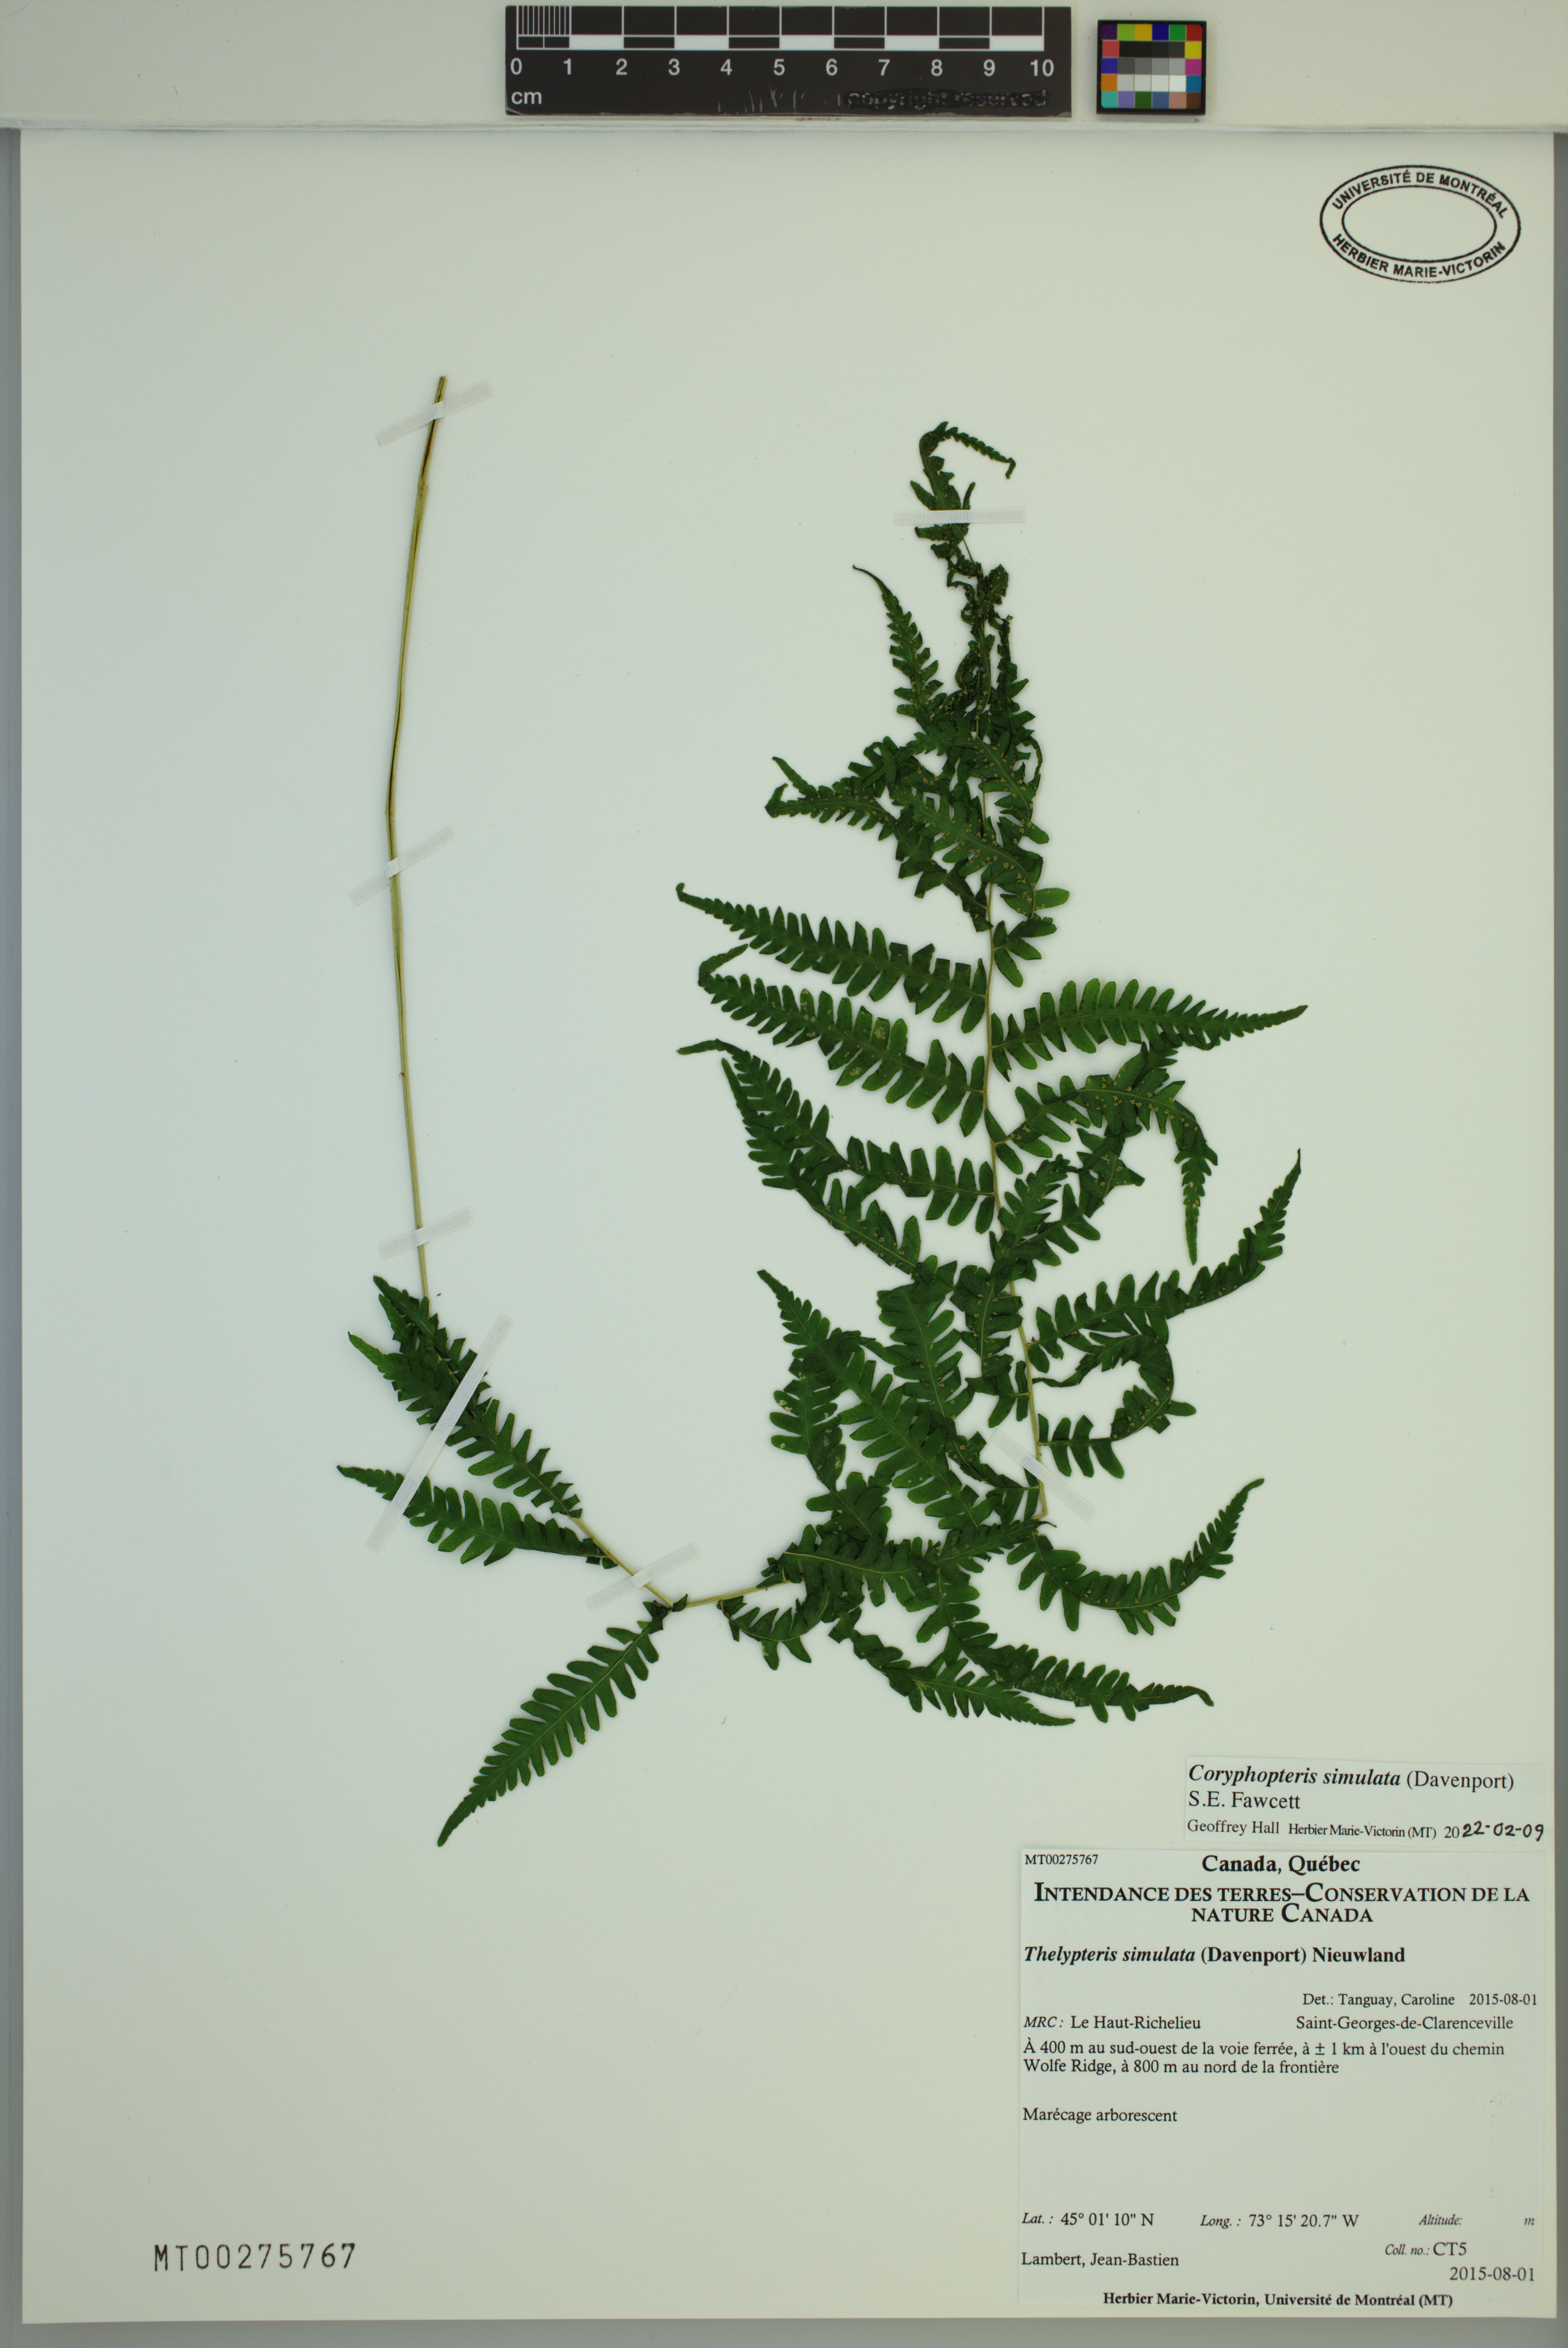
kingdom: Plantae
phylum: Tracheophyta
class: Polypodiopsida
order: Polypodiales
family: Thelypteridaceae
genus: Coryphopteris
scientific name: Coryphopteris simulata
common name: Bog fern
